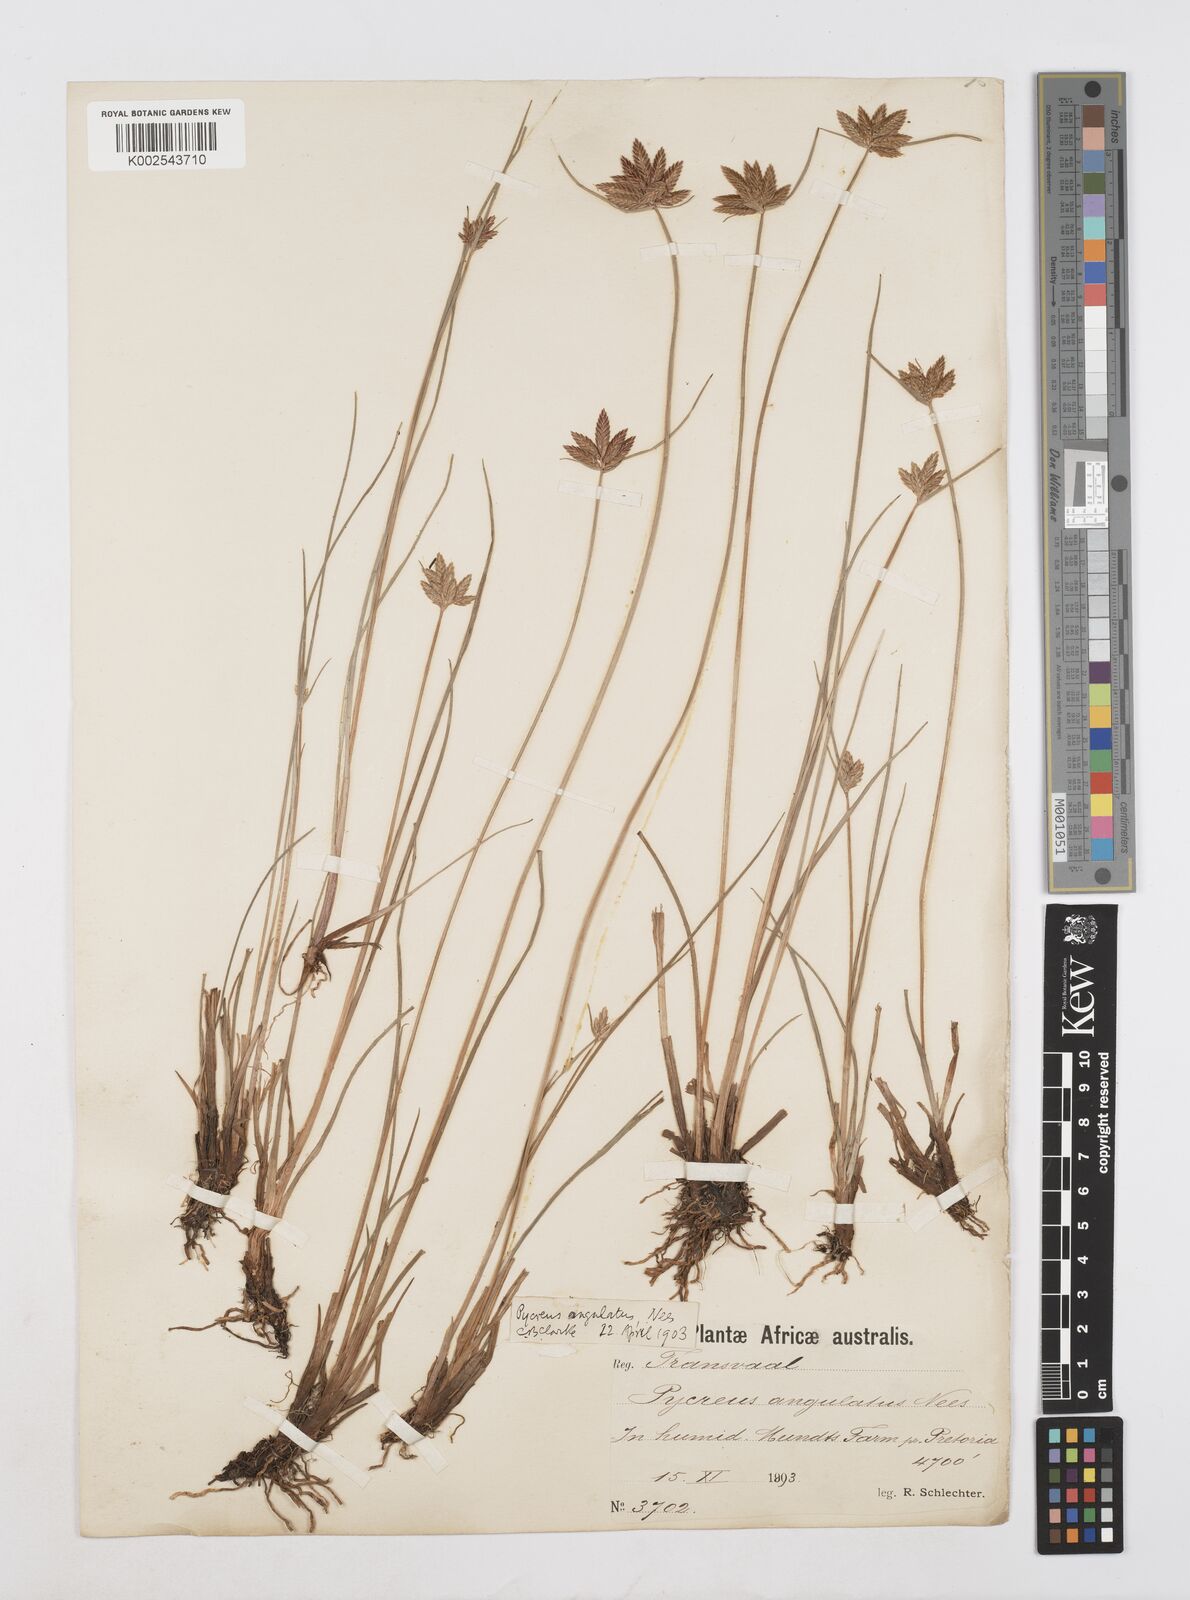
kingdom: Plantae
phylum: Tracheophyta
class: Liliopsida
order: Poales
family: Cyperaceae
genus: Cyperus
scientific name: Cyperus unioloides
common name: Uniola flatsedge
